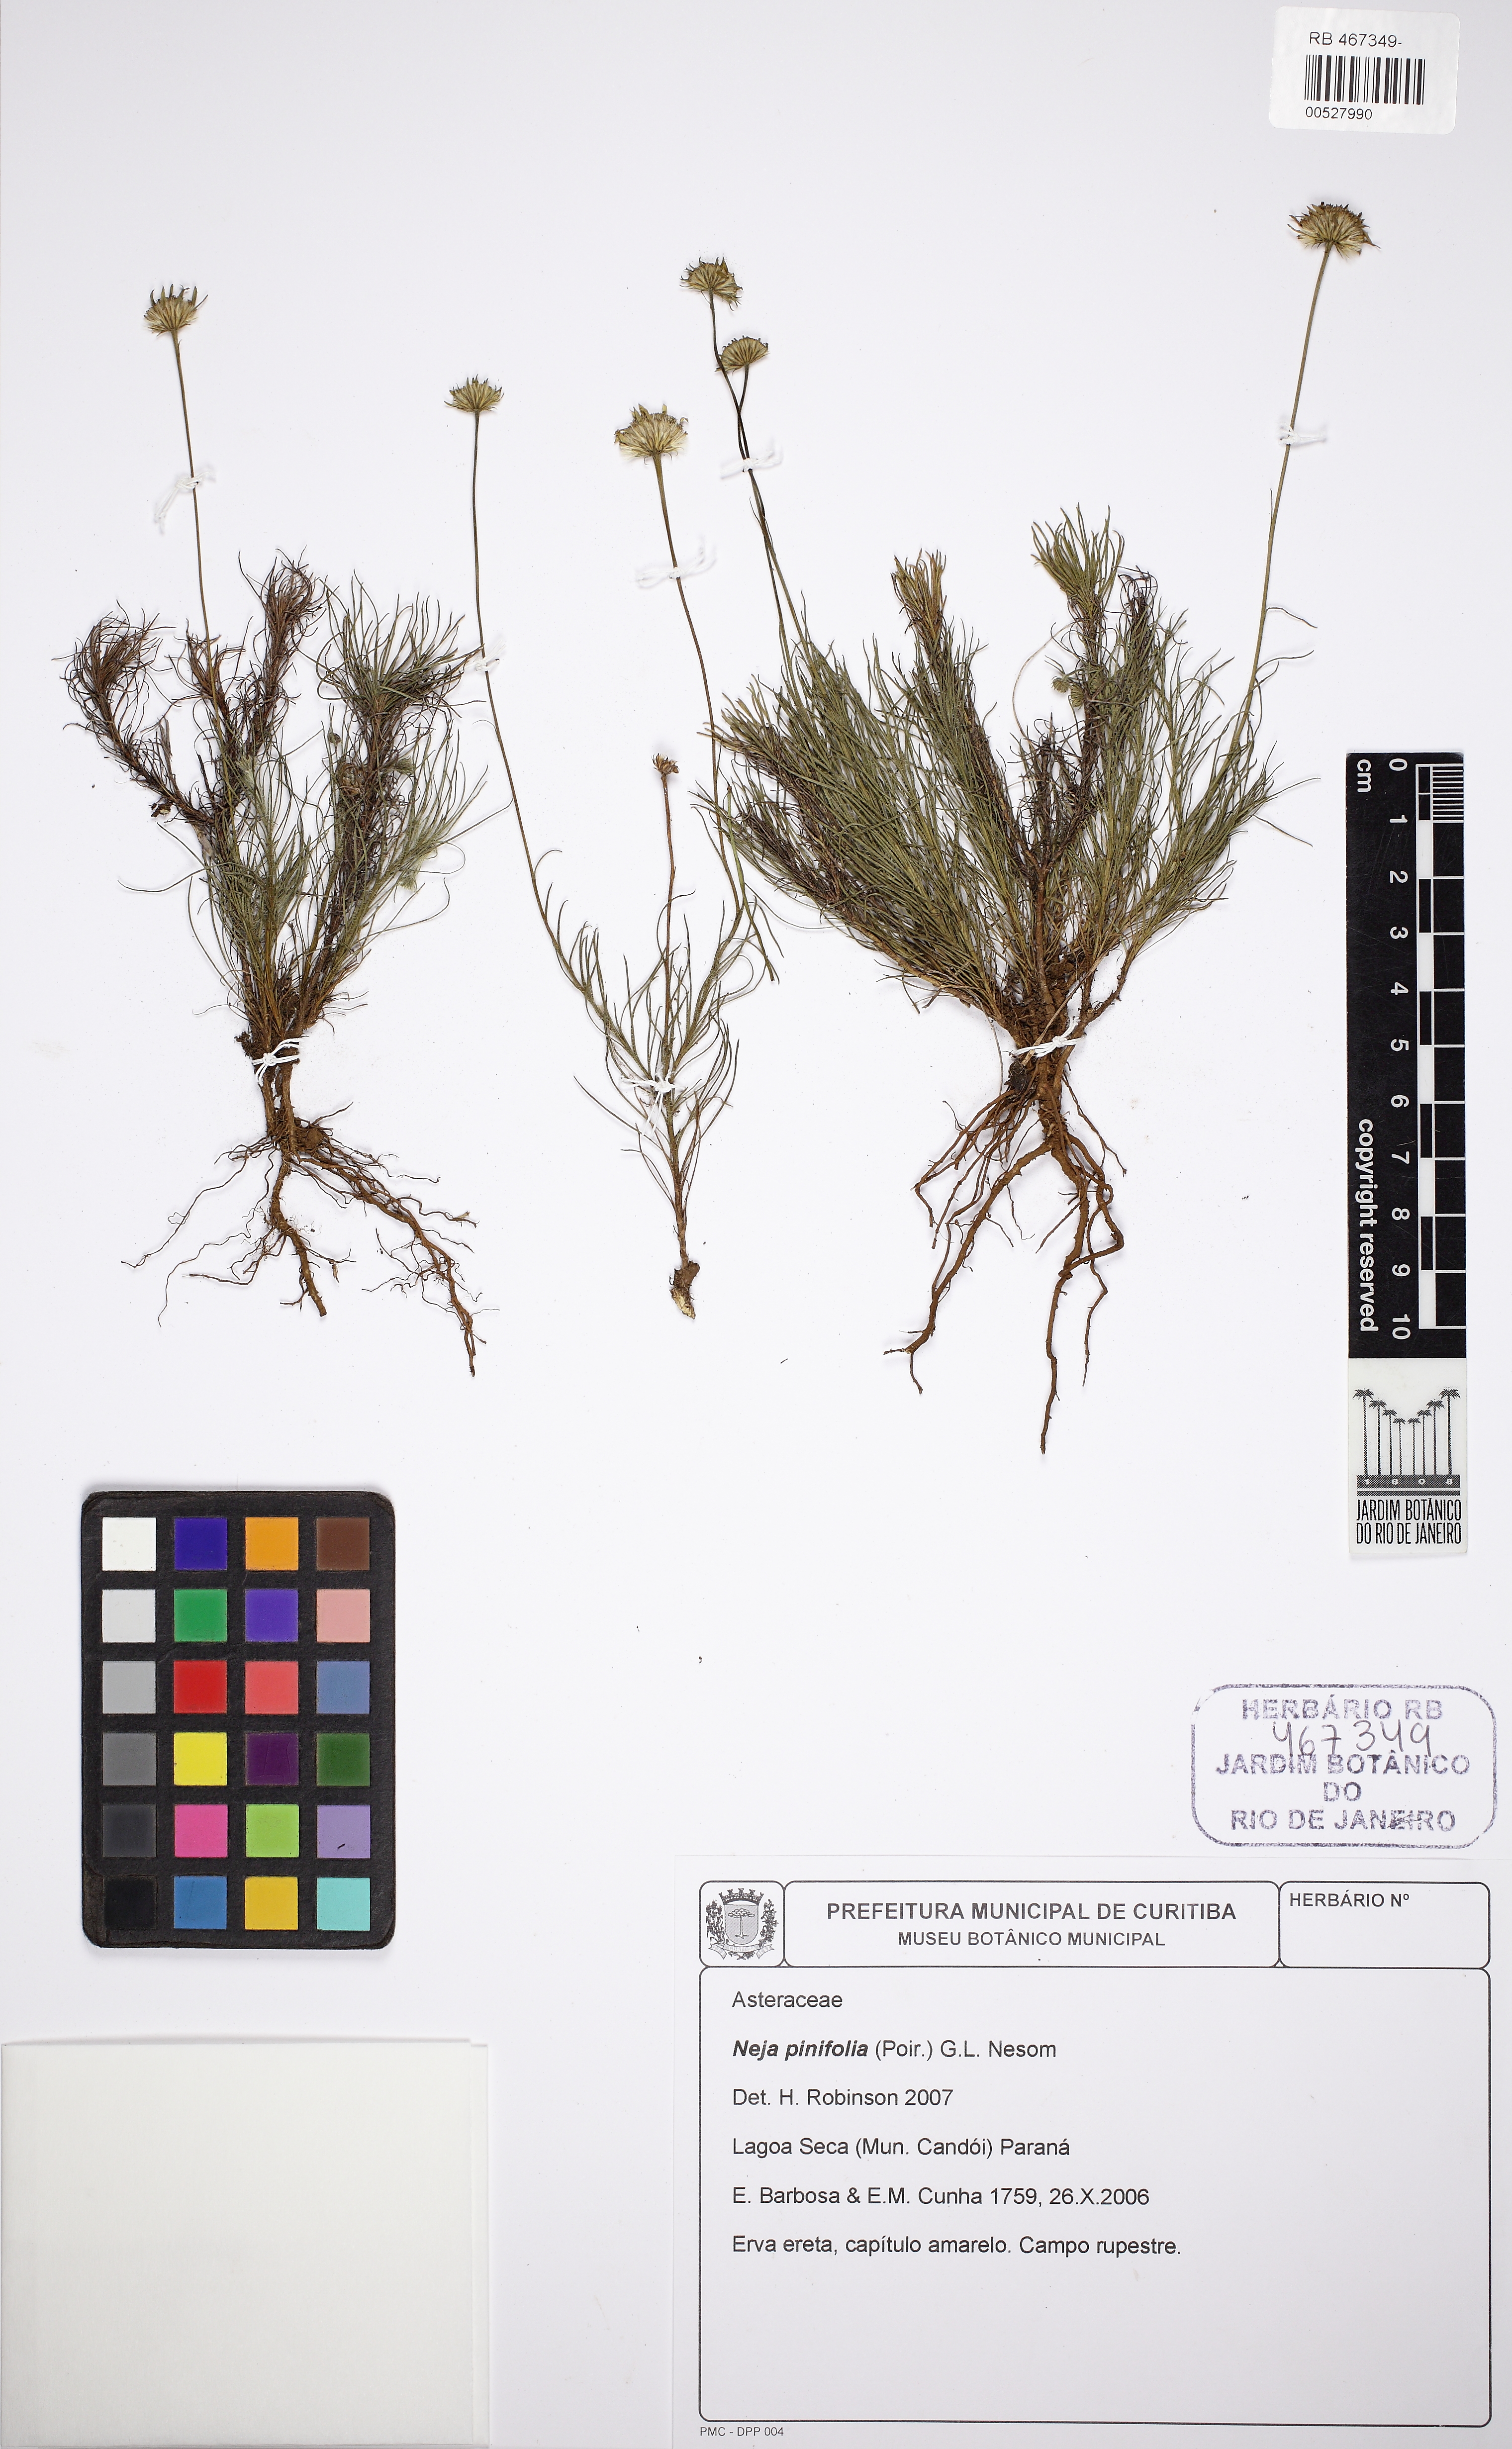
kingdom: Plantae
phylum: Tracheophyta
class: Magnoliopsida
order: Asterales
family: Asteraceae
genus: Neja
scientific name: Neja pinifolia
